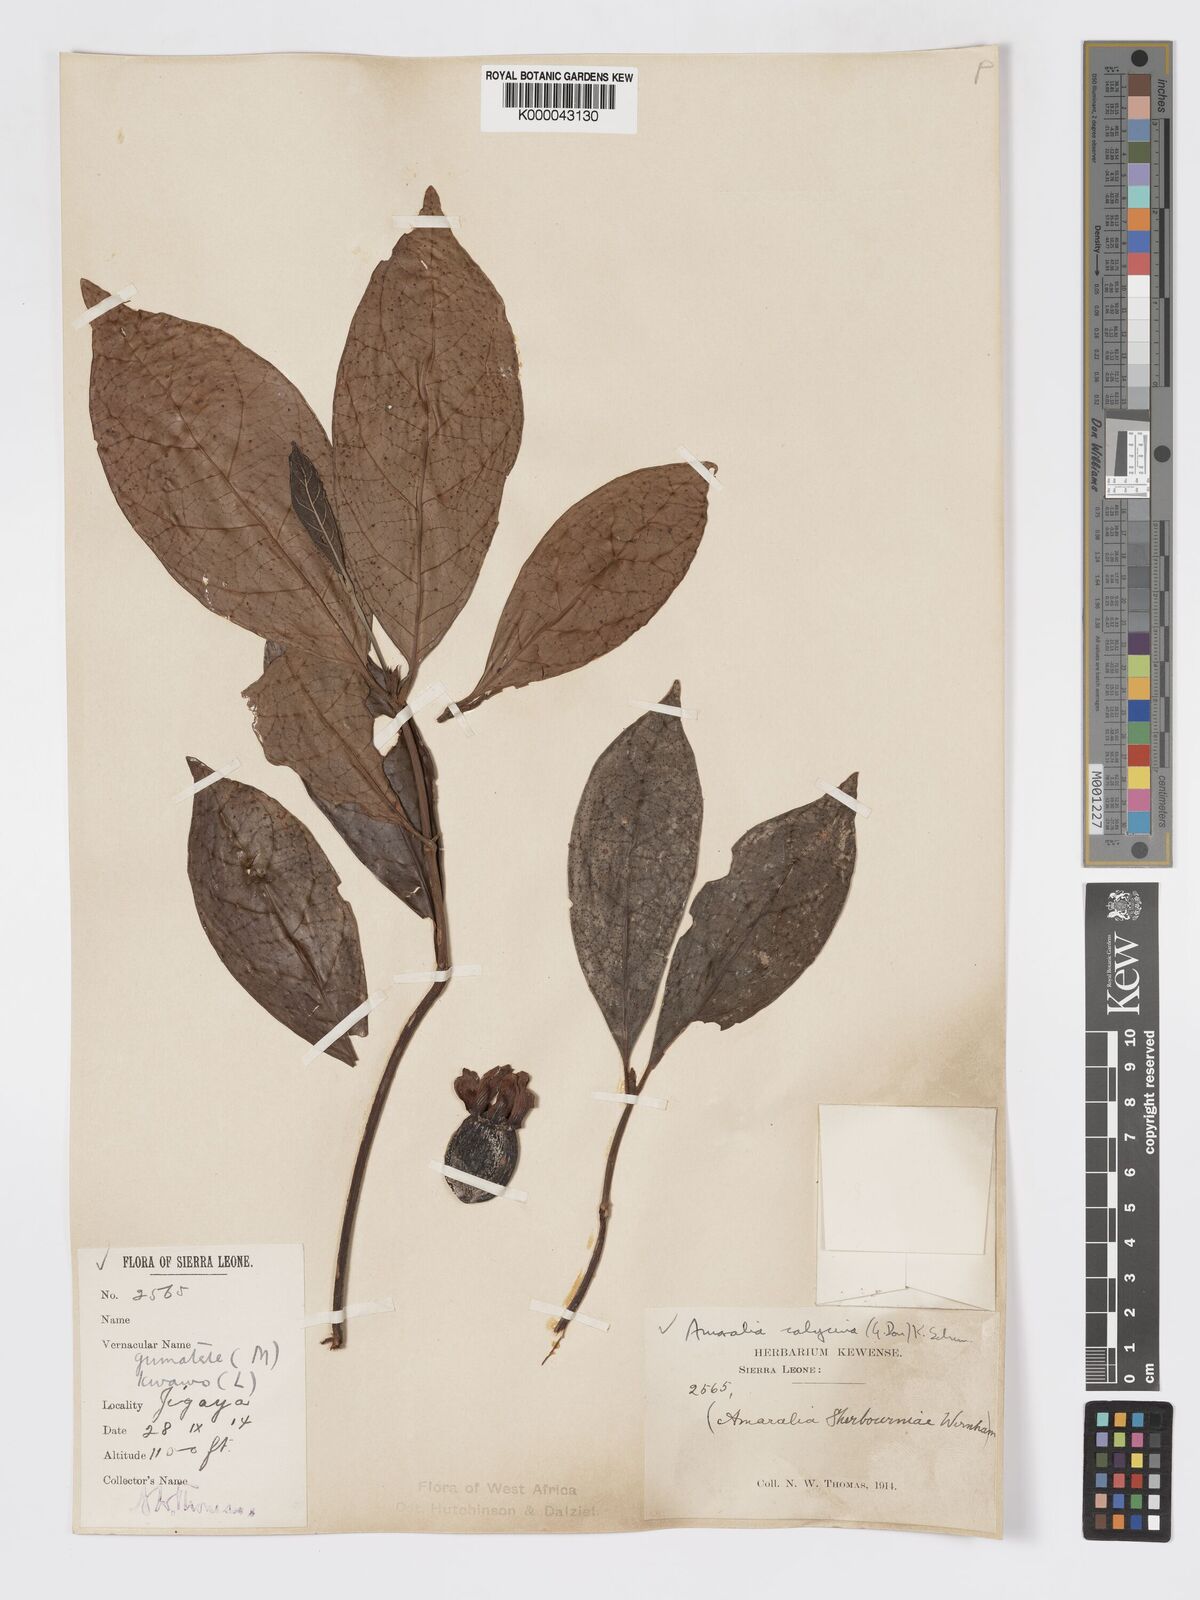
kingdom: Plantae
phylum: Tracheophyta
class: Magnoliopsida
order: Gentianales
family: Rubiaceae
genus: Sherbournia
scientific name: Sherbournia calycina
